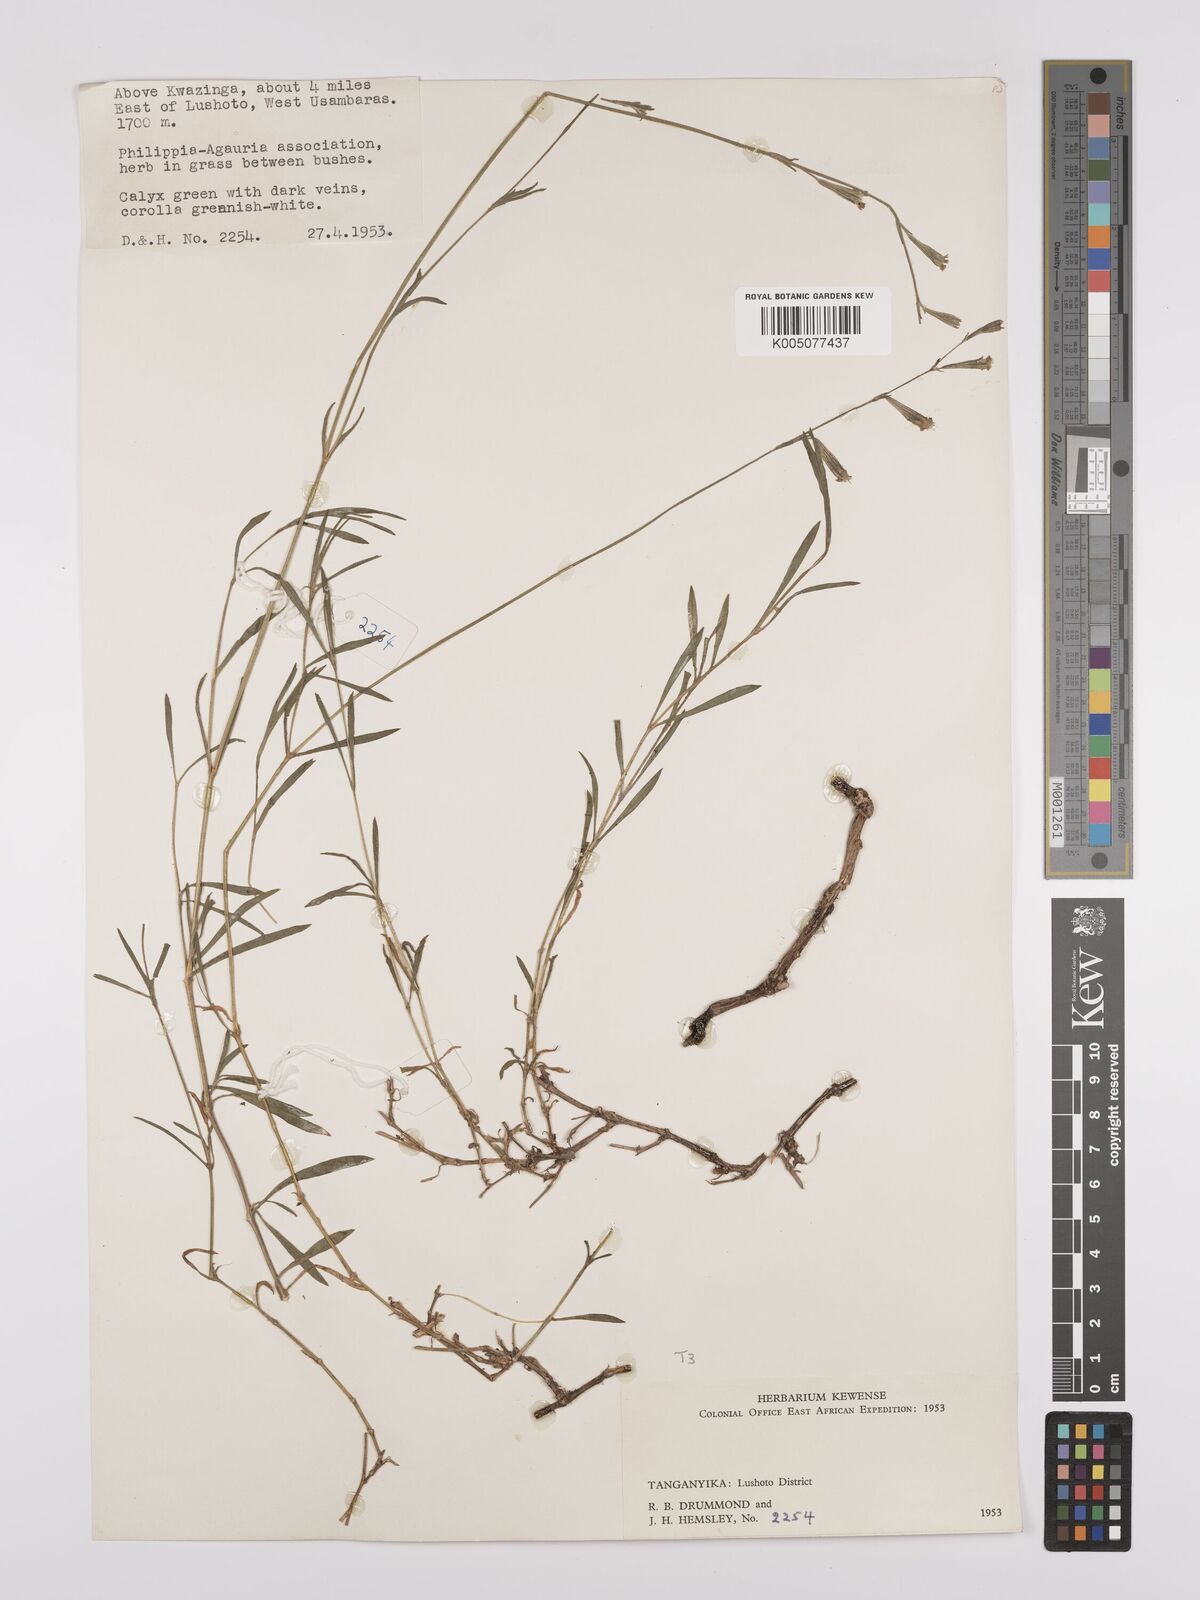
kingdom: Plantae
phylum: Tracheophyta
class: Magnoliopsida
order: Caryophyllales
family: Caryophyllaceae
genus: Silene
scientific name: Silene burchellii
